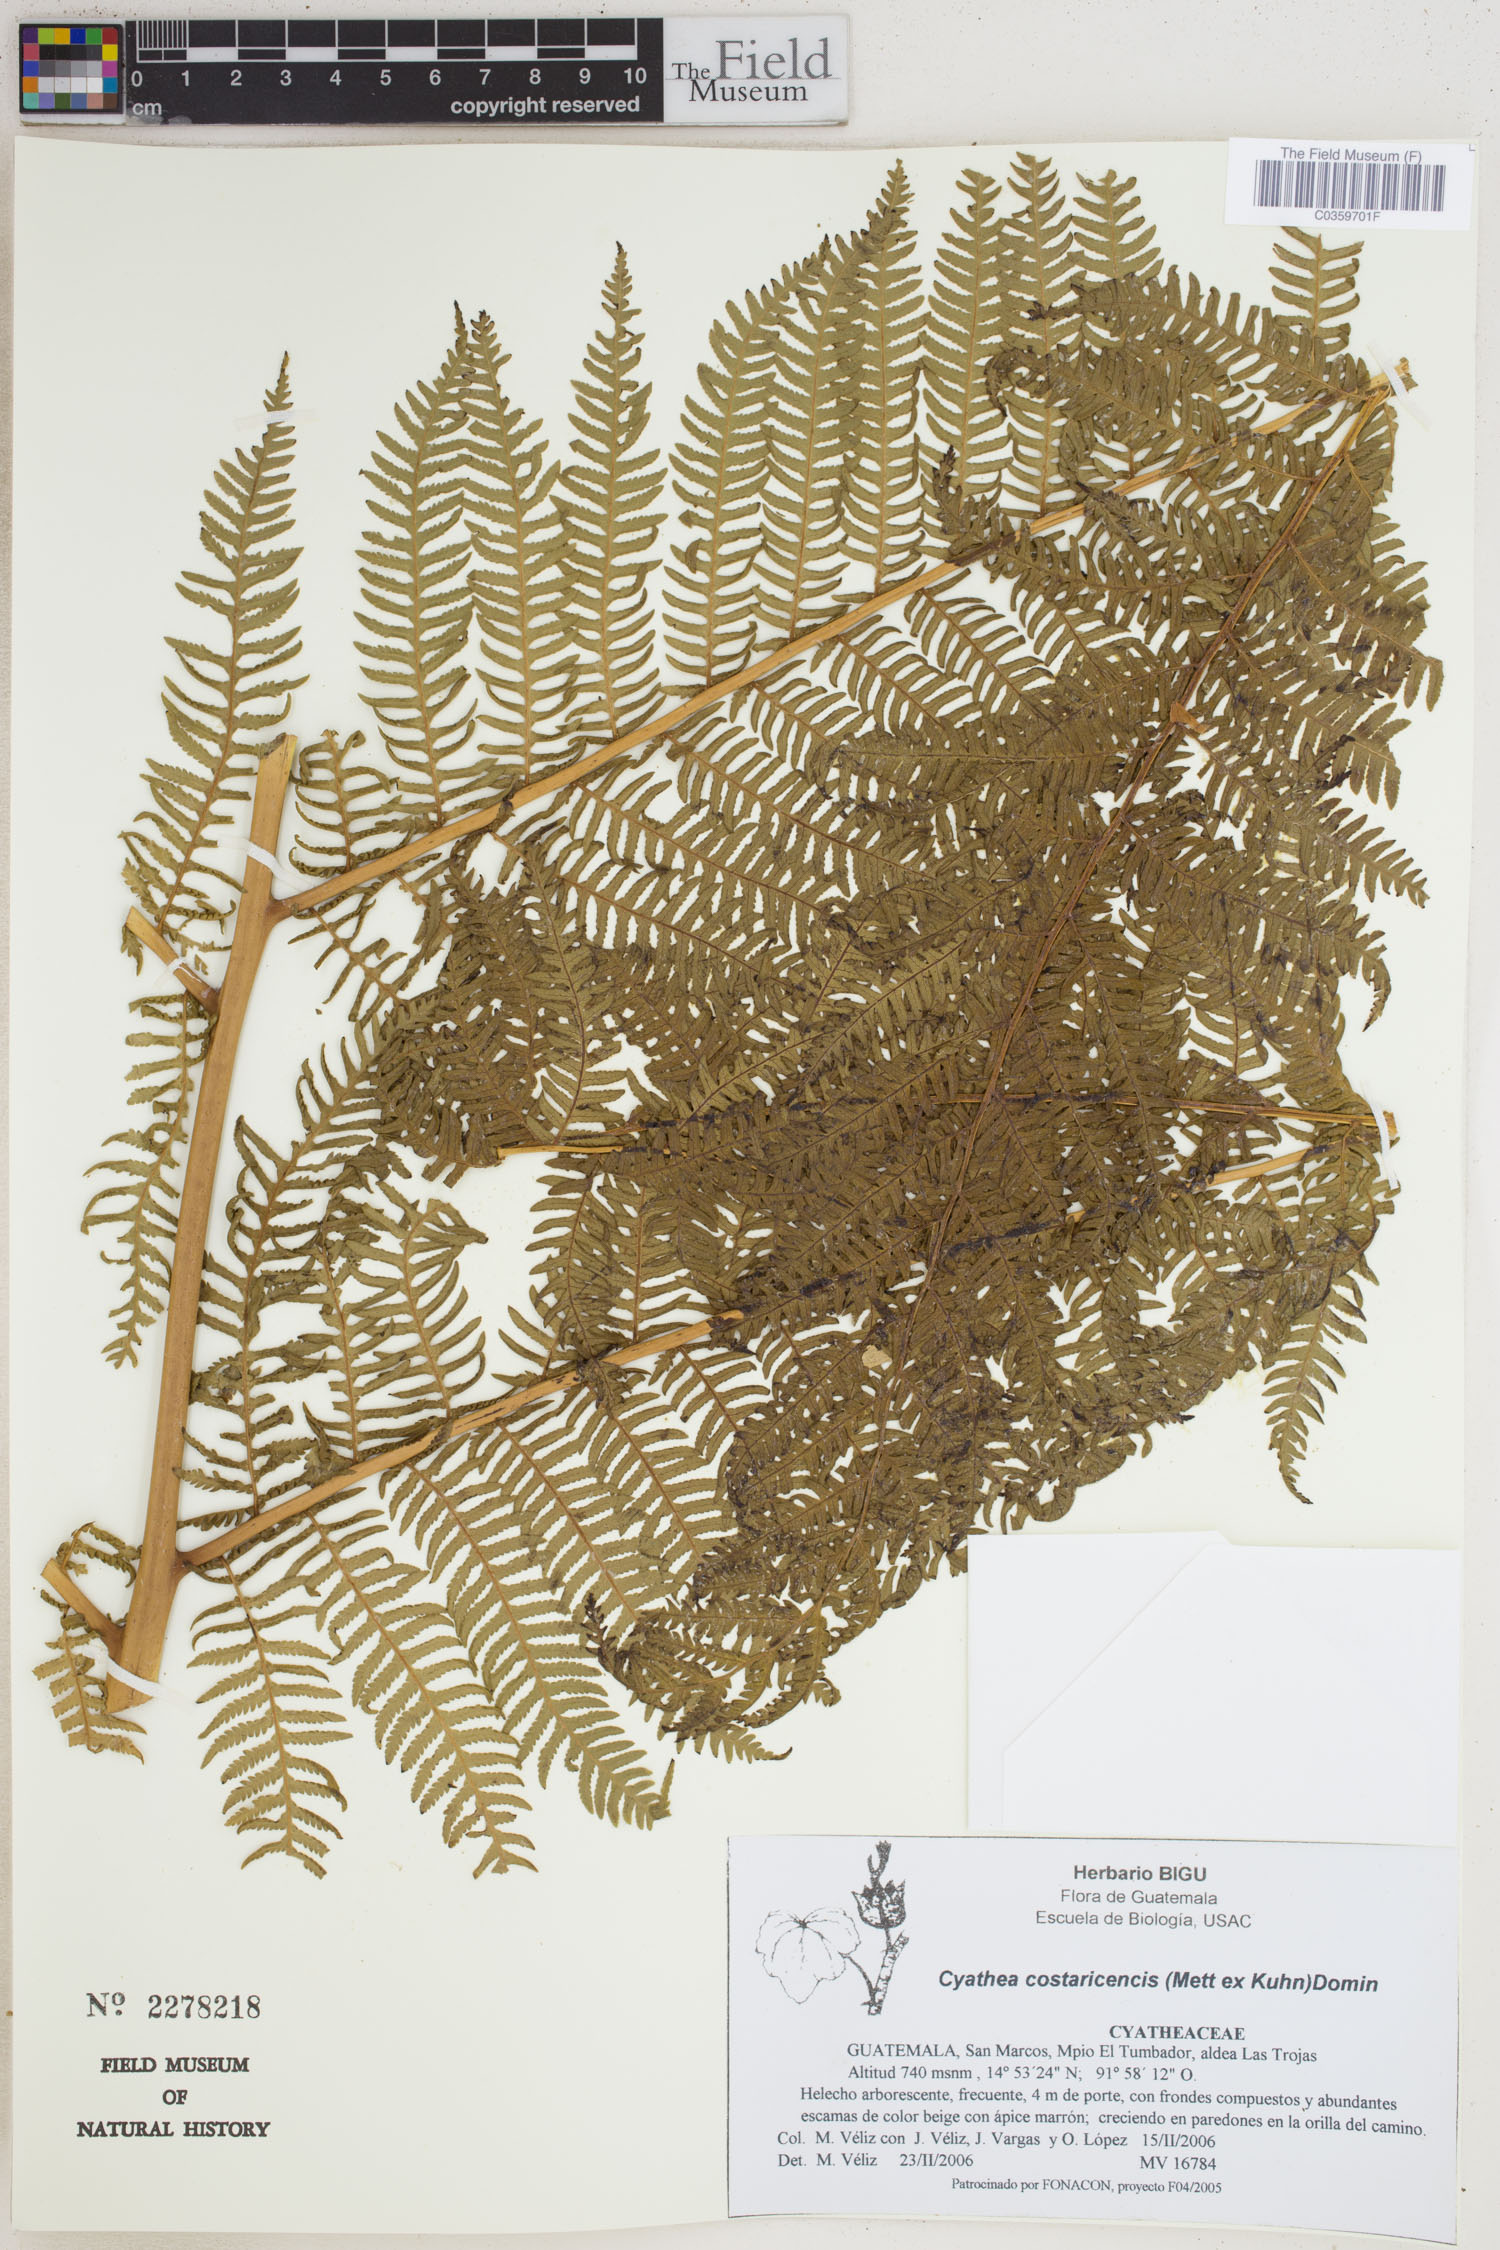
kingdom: Plantae
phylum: Tracheophyta
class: Polypodiopsida
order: Cyatheales
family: Cyatheaceae
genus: Cyathea
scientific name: Cyathea costaricensis
